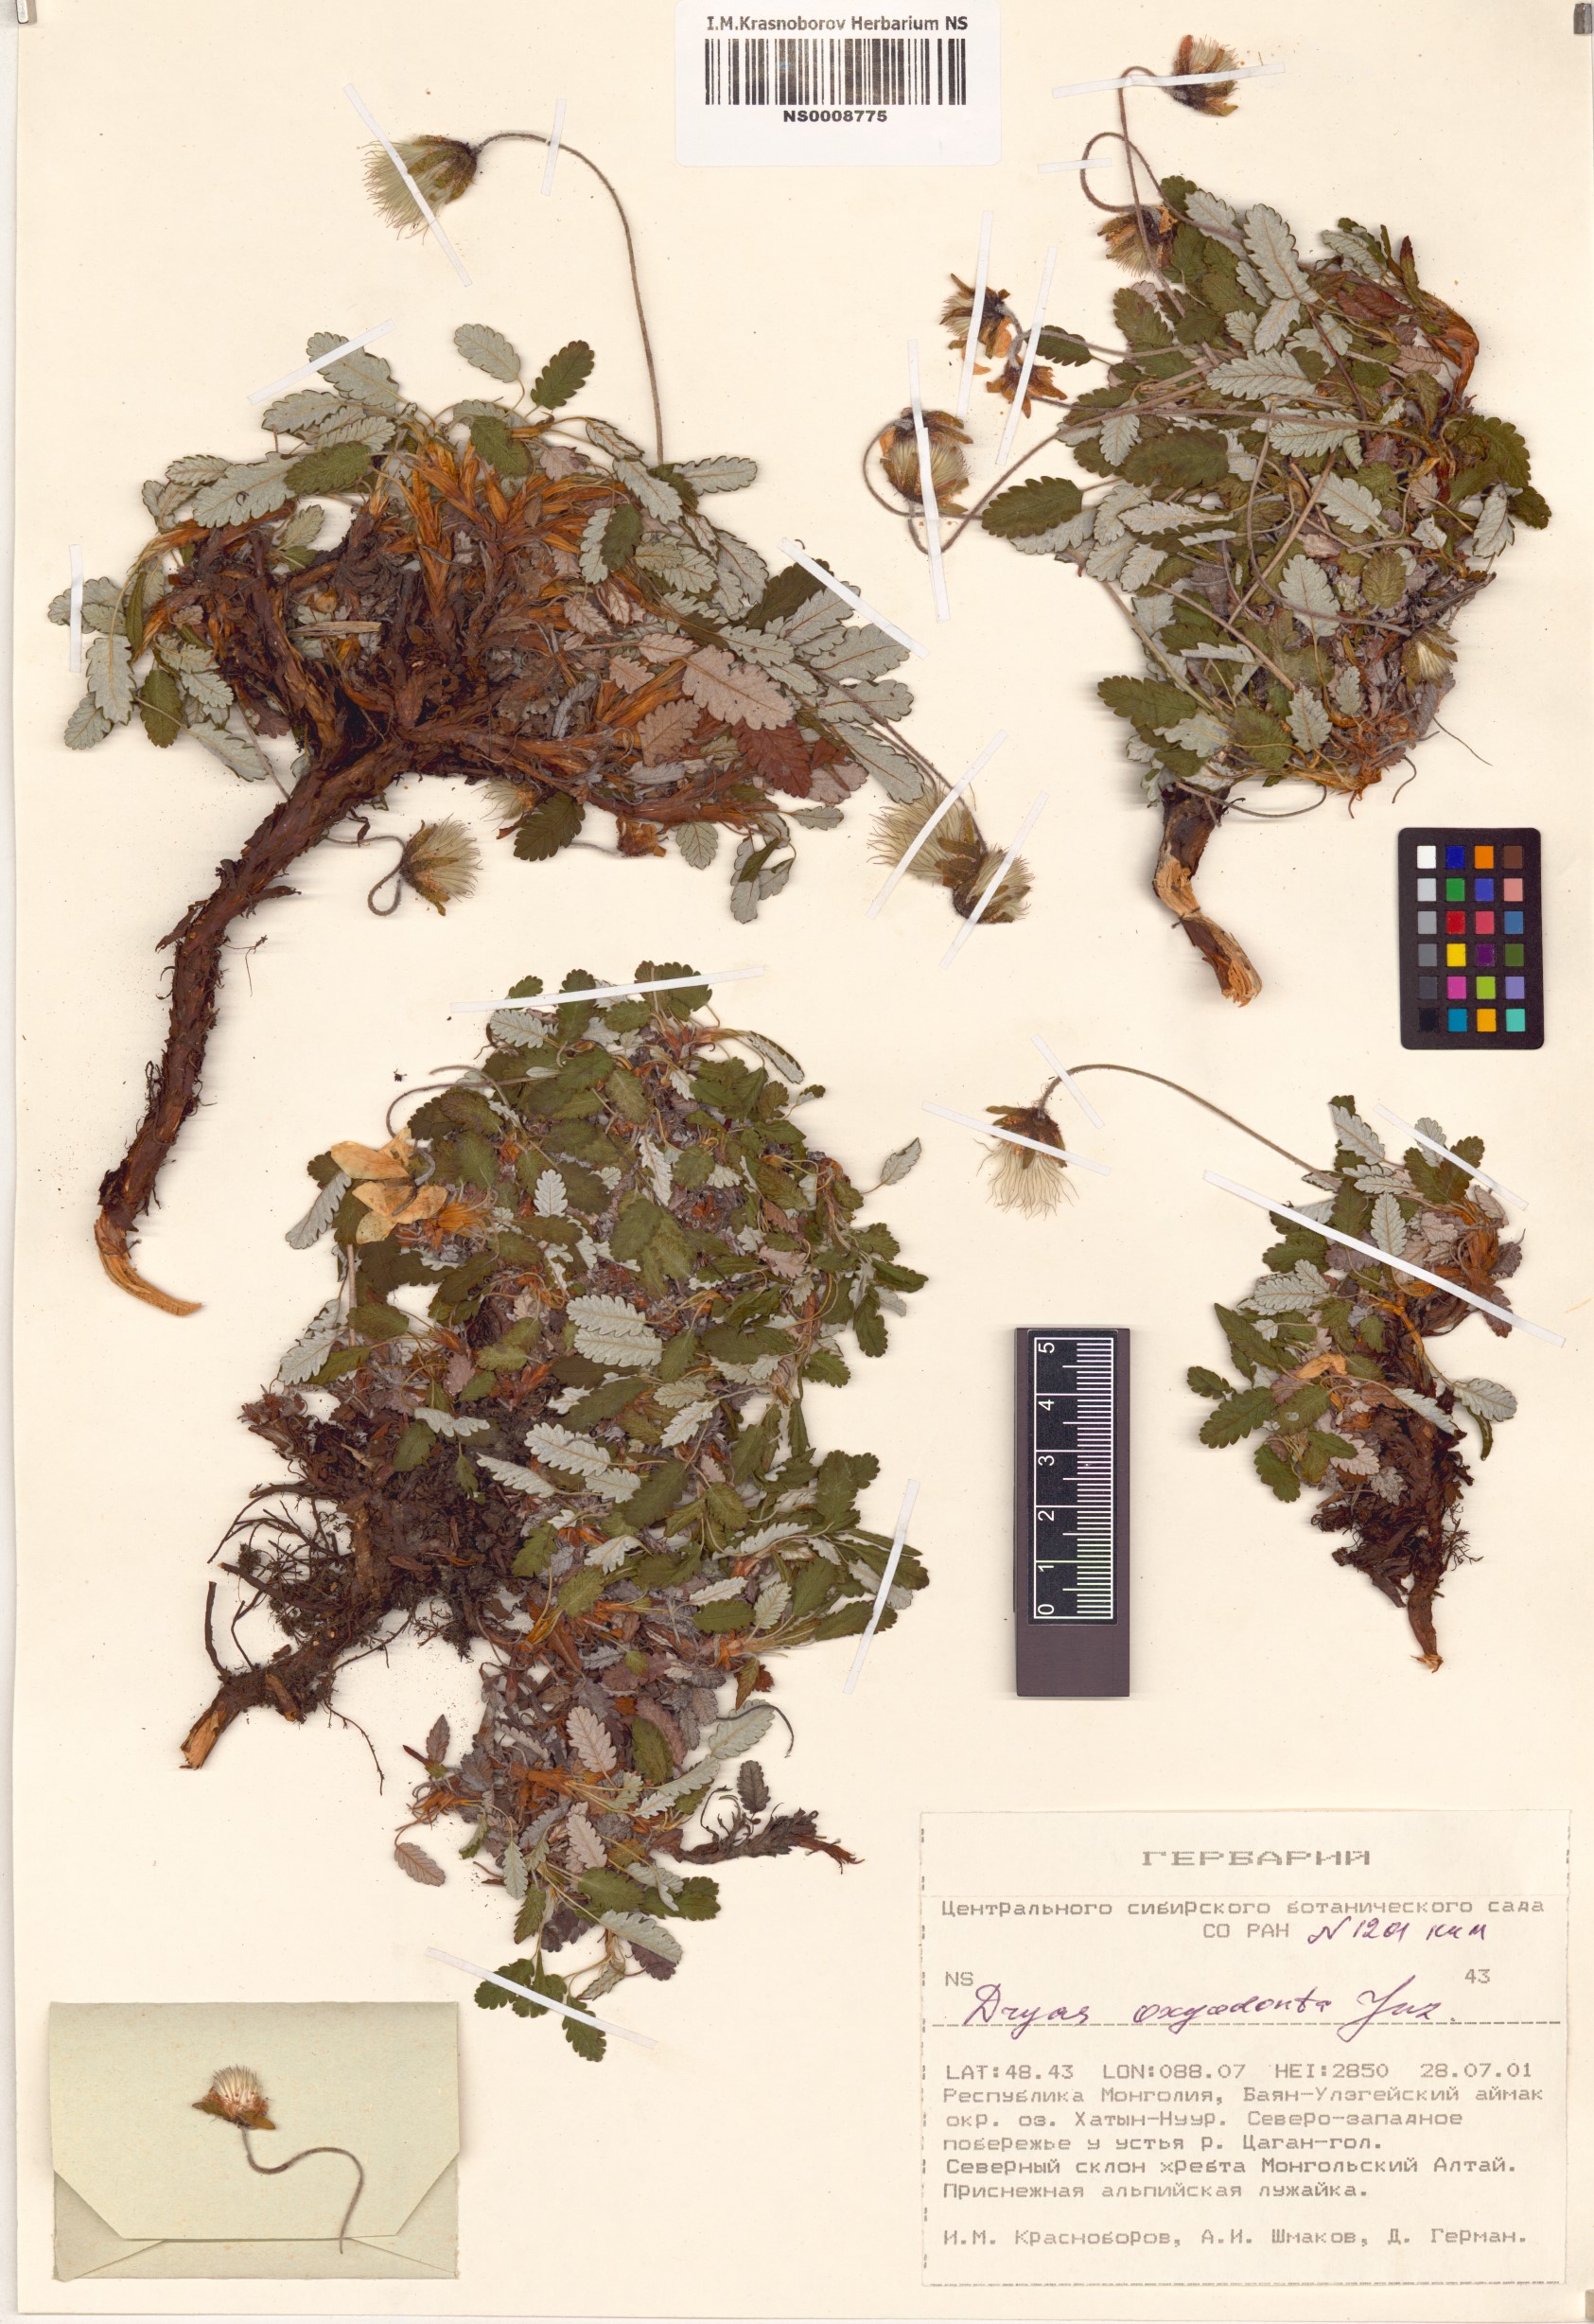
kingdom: Plantae
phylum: Tracheophyta
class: Magnoliopsida
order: Rosales
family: Rosaceae
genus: Dryas
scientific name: Dryas octopetala
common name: Eight-petal mountain-avens
